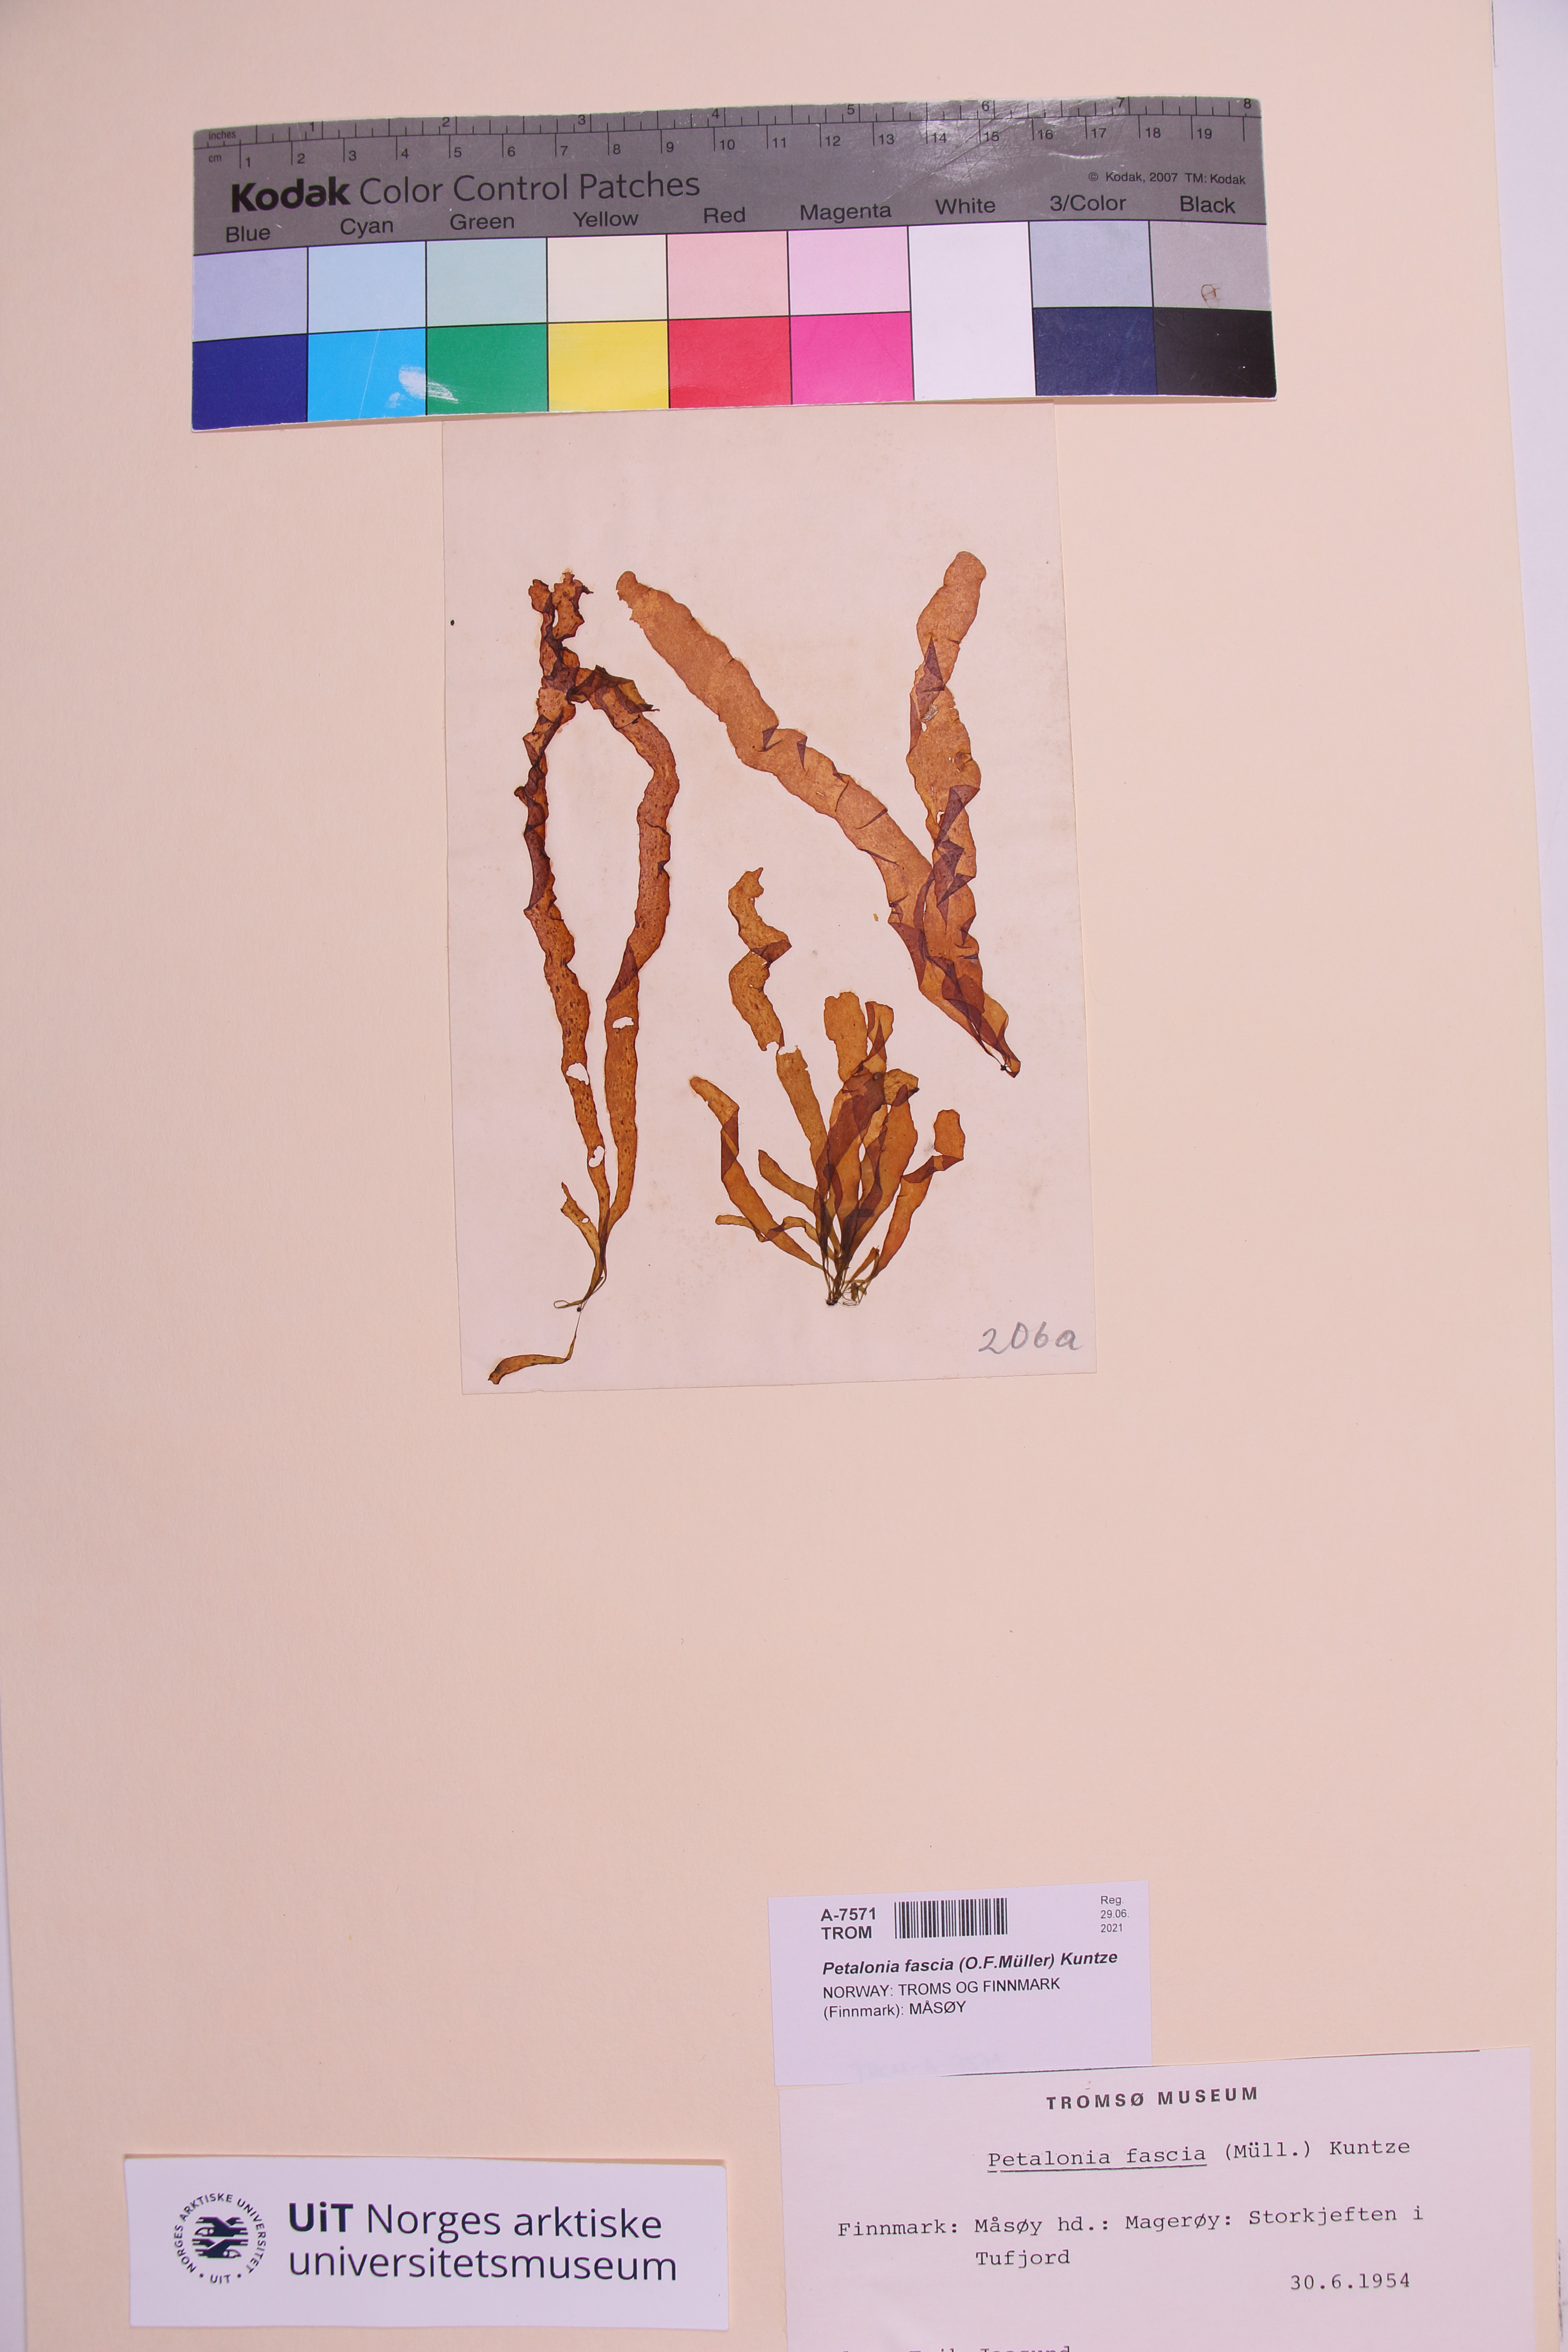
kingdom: Chromista
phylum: Ochrophyta
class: Phaeophyceae
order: Scytosiphonales
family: Scytosiphonaceae
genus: Petalonia
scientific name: Petalonia fascia
